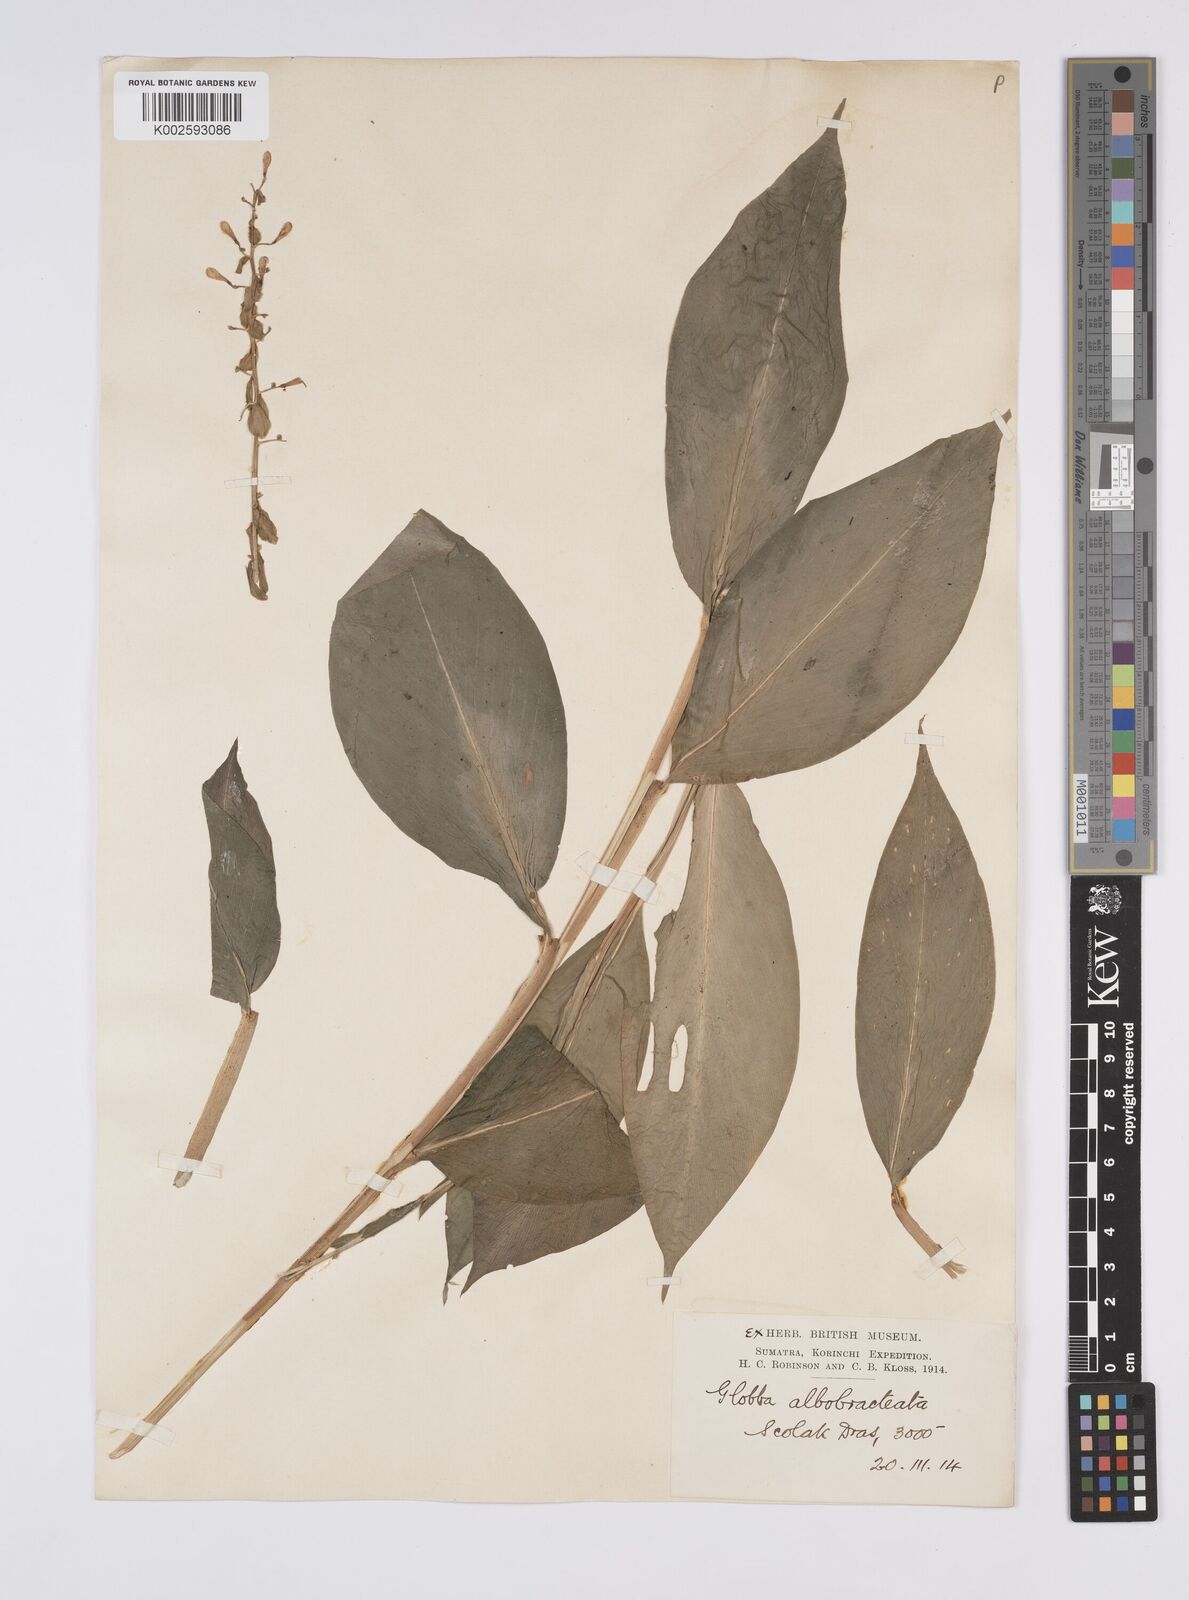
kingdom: Plantae
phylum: Tracheophyta
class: Liliopsida
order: Zingiberales
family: Zingiberaceae
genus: Globba
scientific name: Globba albobracteata
